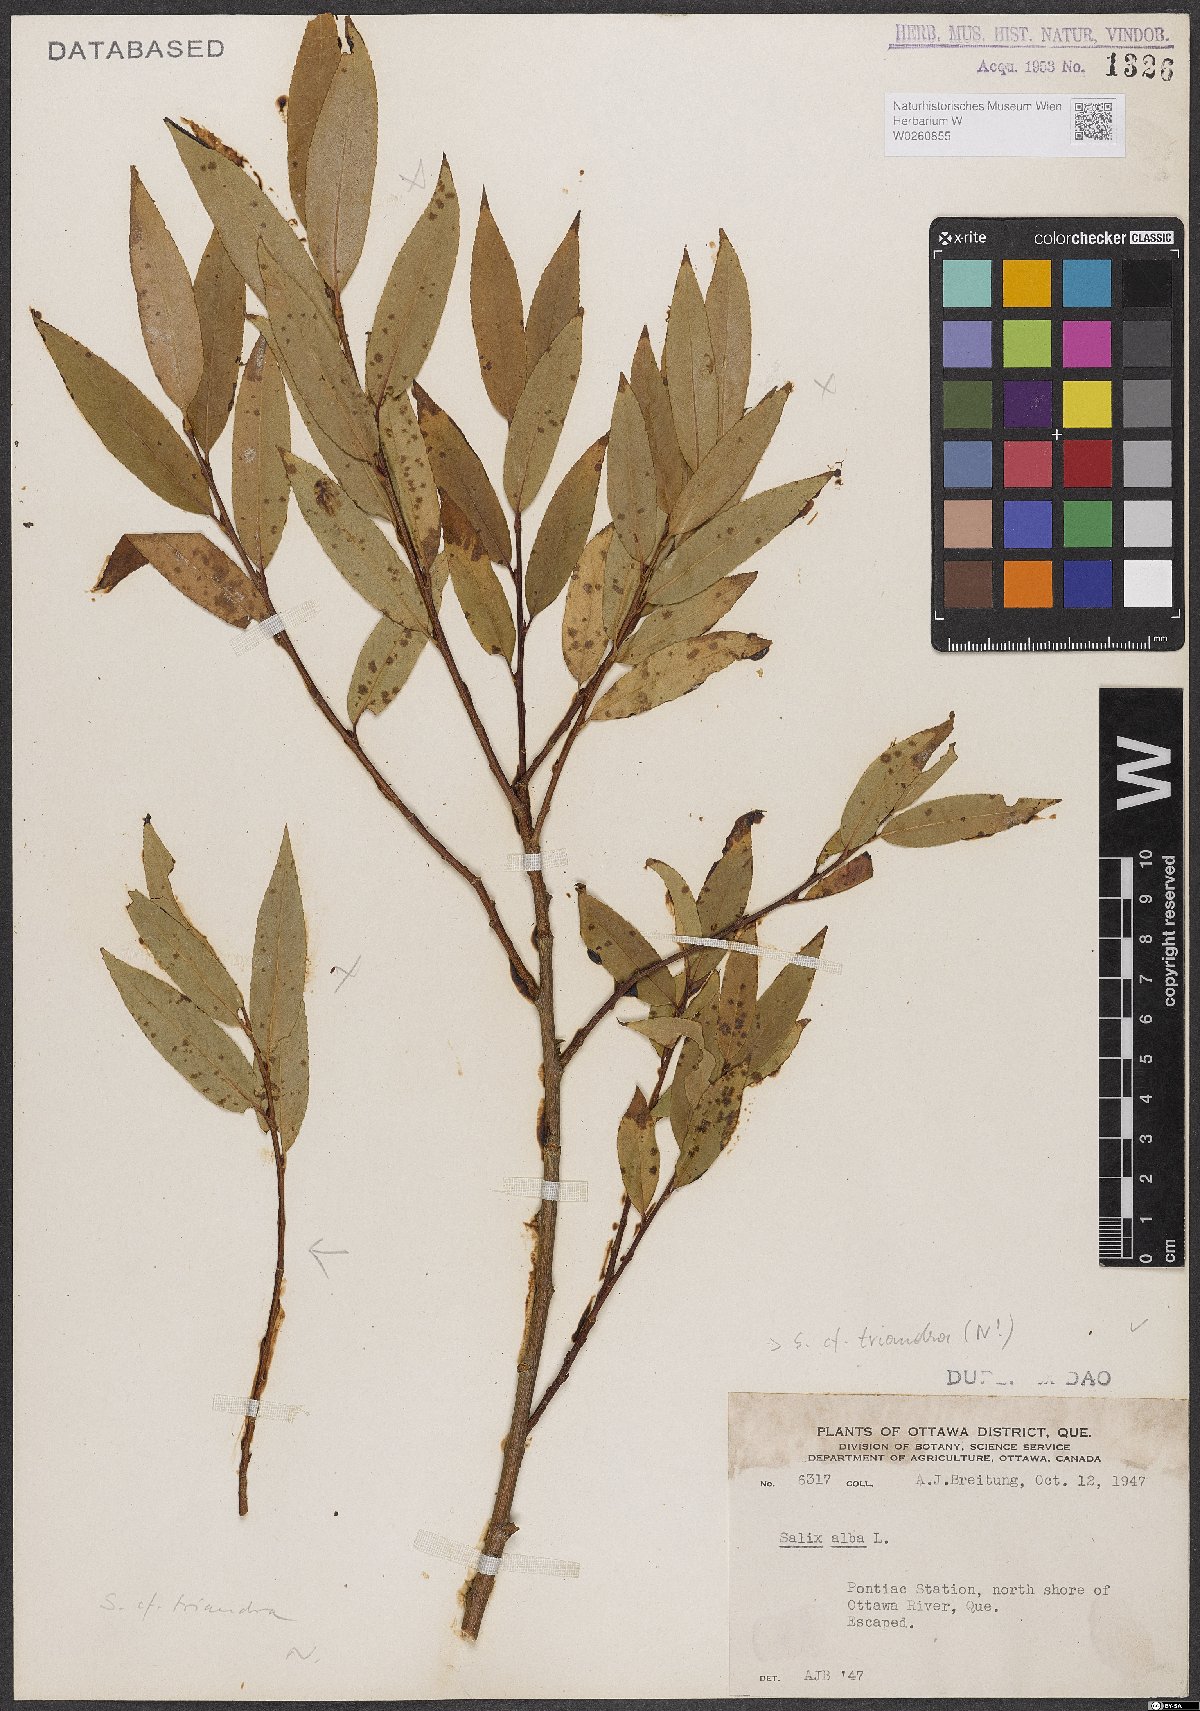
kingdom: Plantae
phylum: Tracheophyta
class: Magnoliopsida
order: Malpighiales
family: Salicaceae
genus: Salix
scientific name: Salix triandra
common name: Almond willow
